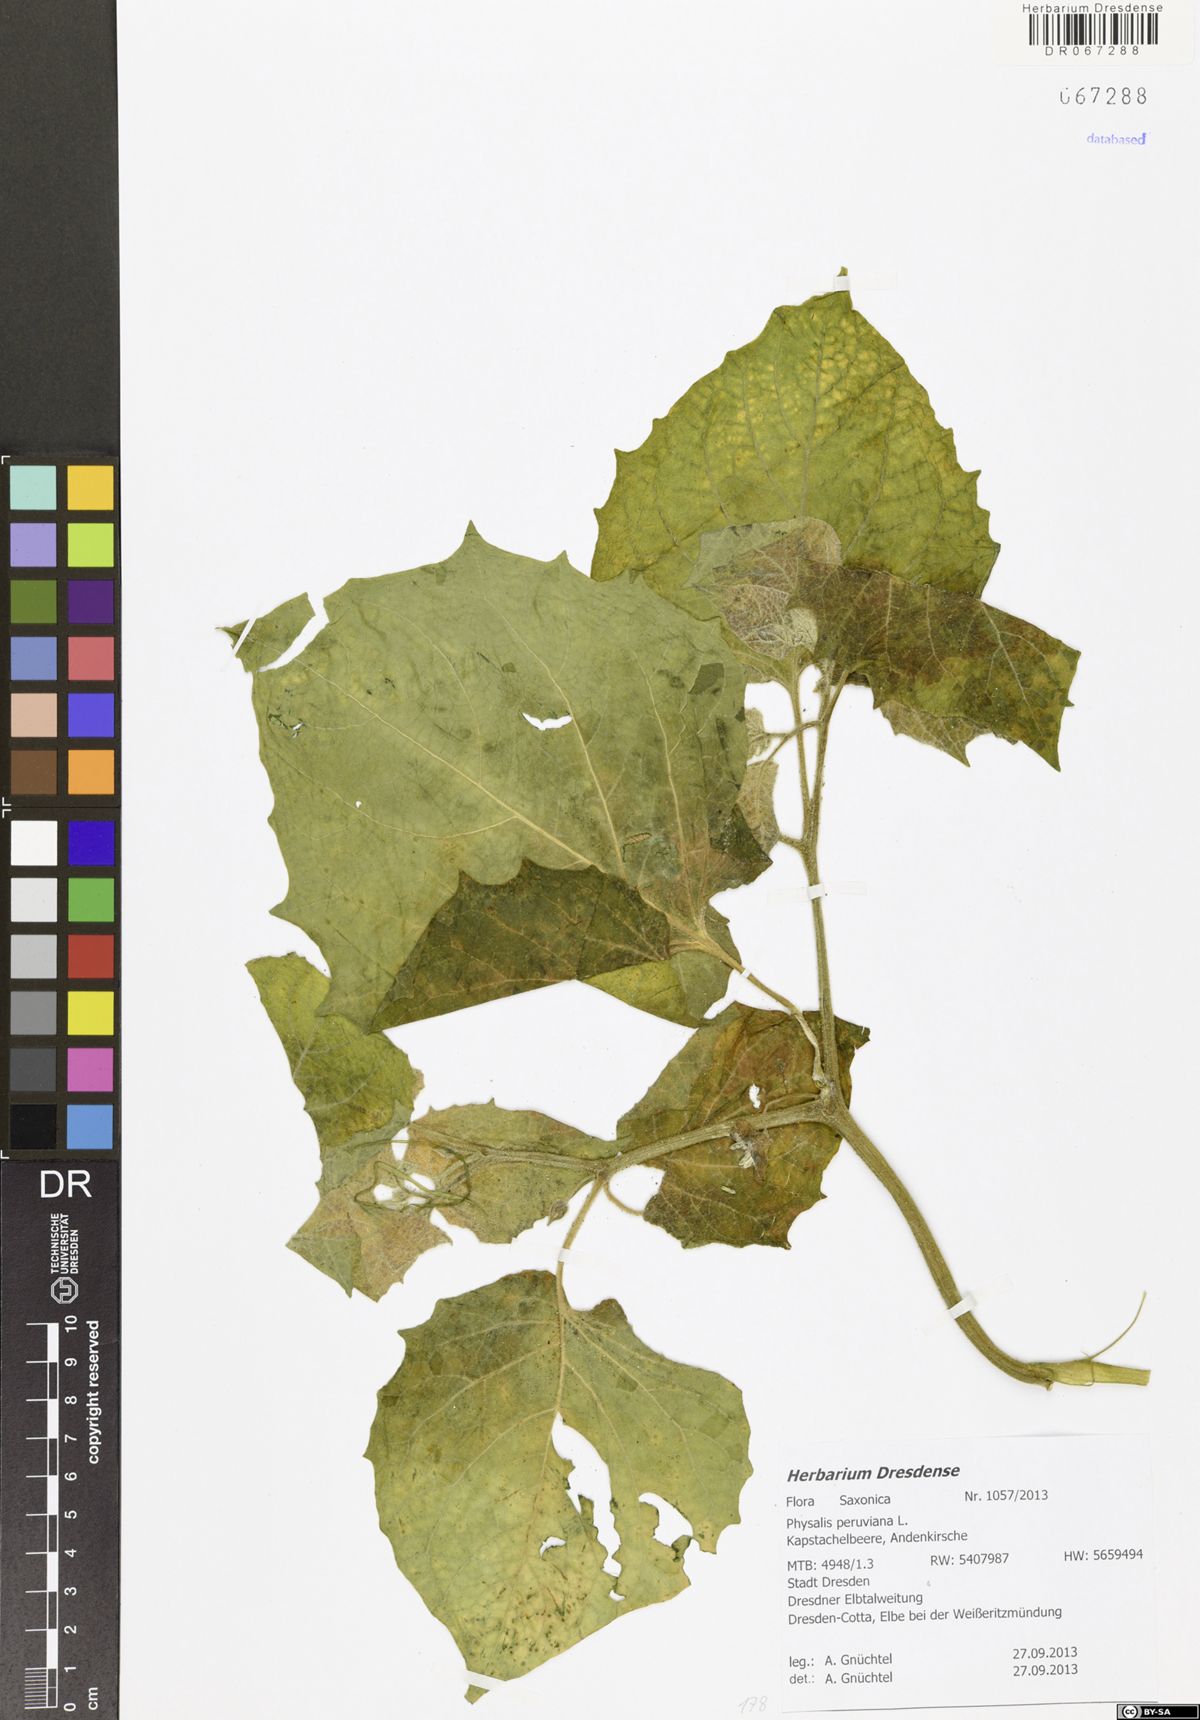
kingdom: Plantae
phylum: Tracheophyta
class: Magnoliopsida
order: Solanales
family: Solanaceae
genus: Physalis
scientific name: Physalis peruviana
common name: Cape-gooseberry
